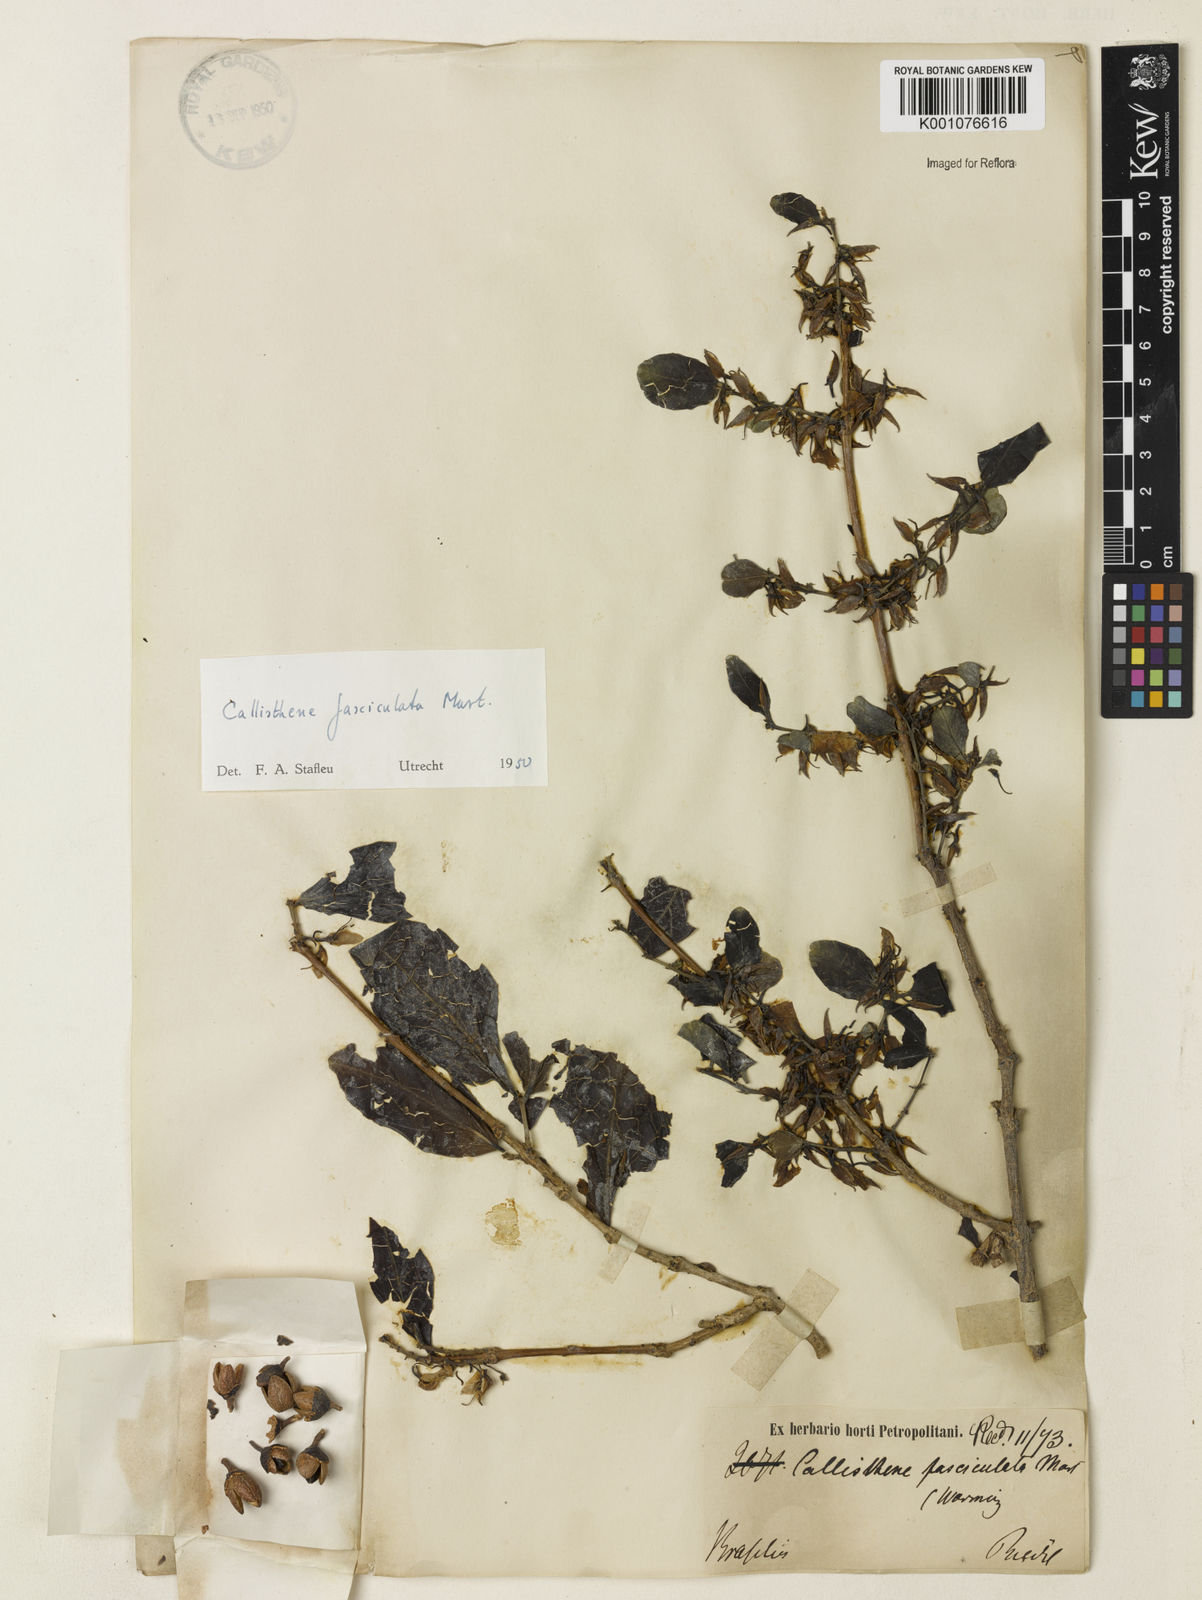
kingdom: Plantae
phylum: Tracheophyta
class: Magnoliopsida
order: Myrtales
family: Vochysiaceae
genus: Callisthene
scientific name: Callisthene fasciculata
